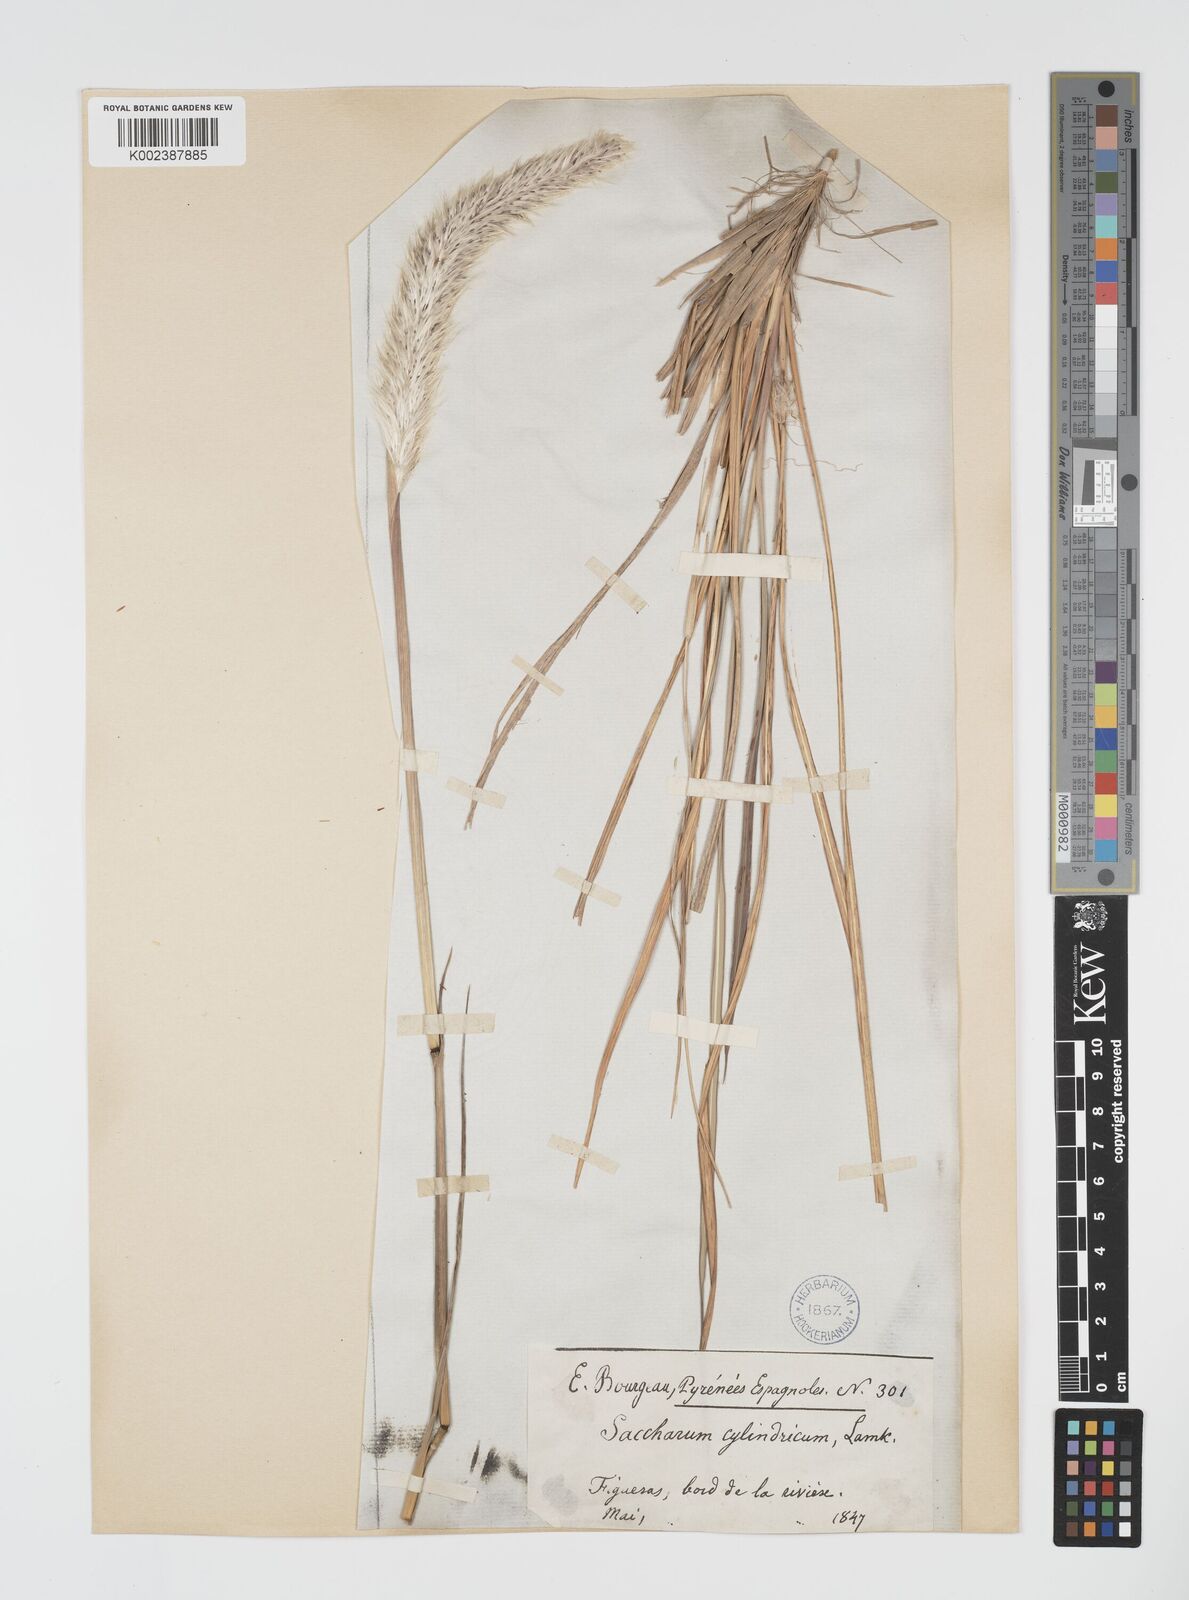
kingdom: Plantae
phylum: Tracheophyta
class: Liliopsida
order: Poales
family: Poaceae
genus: Imperata
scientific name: Imperata cylindrica
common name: Cogongrass
